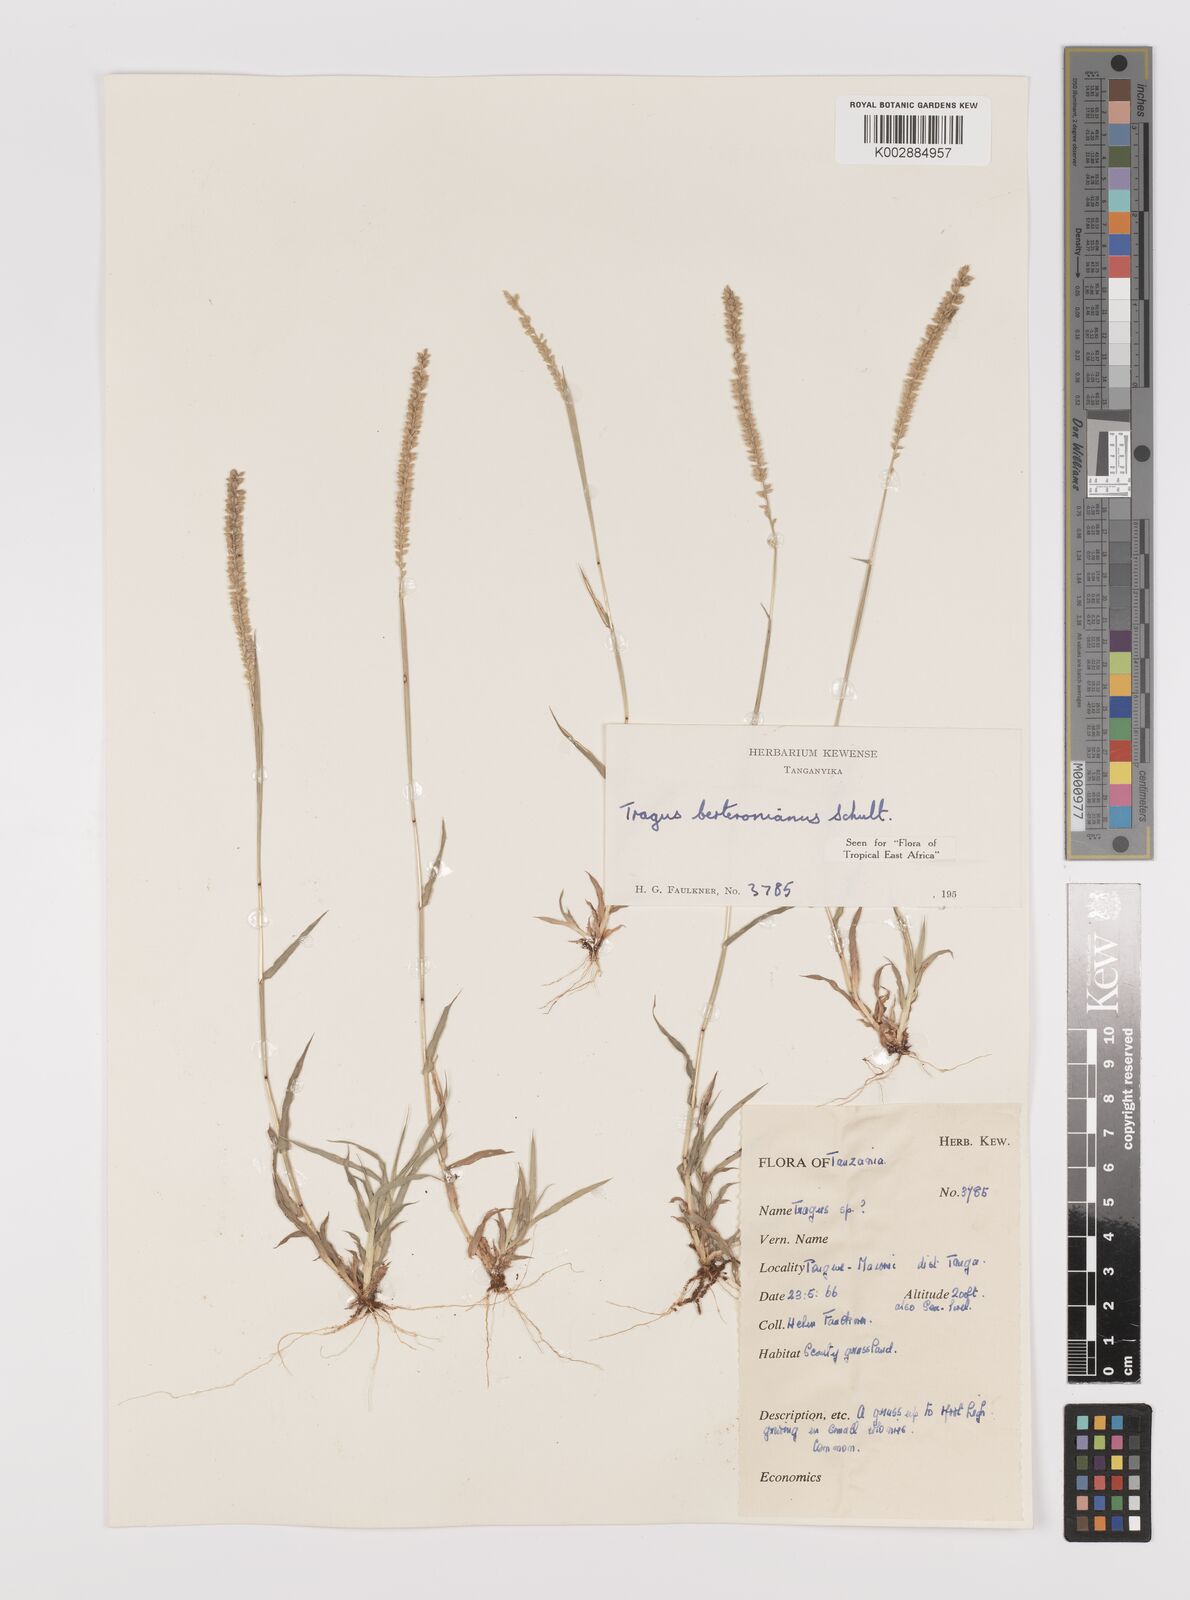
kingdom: Plantae
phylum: Tracheophyta
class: Liliopsida
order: Poales
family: Poaceae
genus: Tragus
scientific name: Tragus berteronianus
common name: African bur-grass
